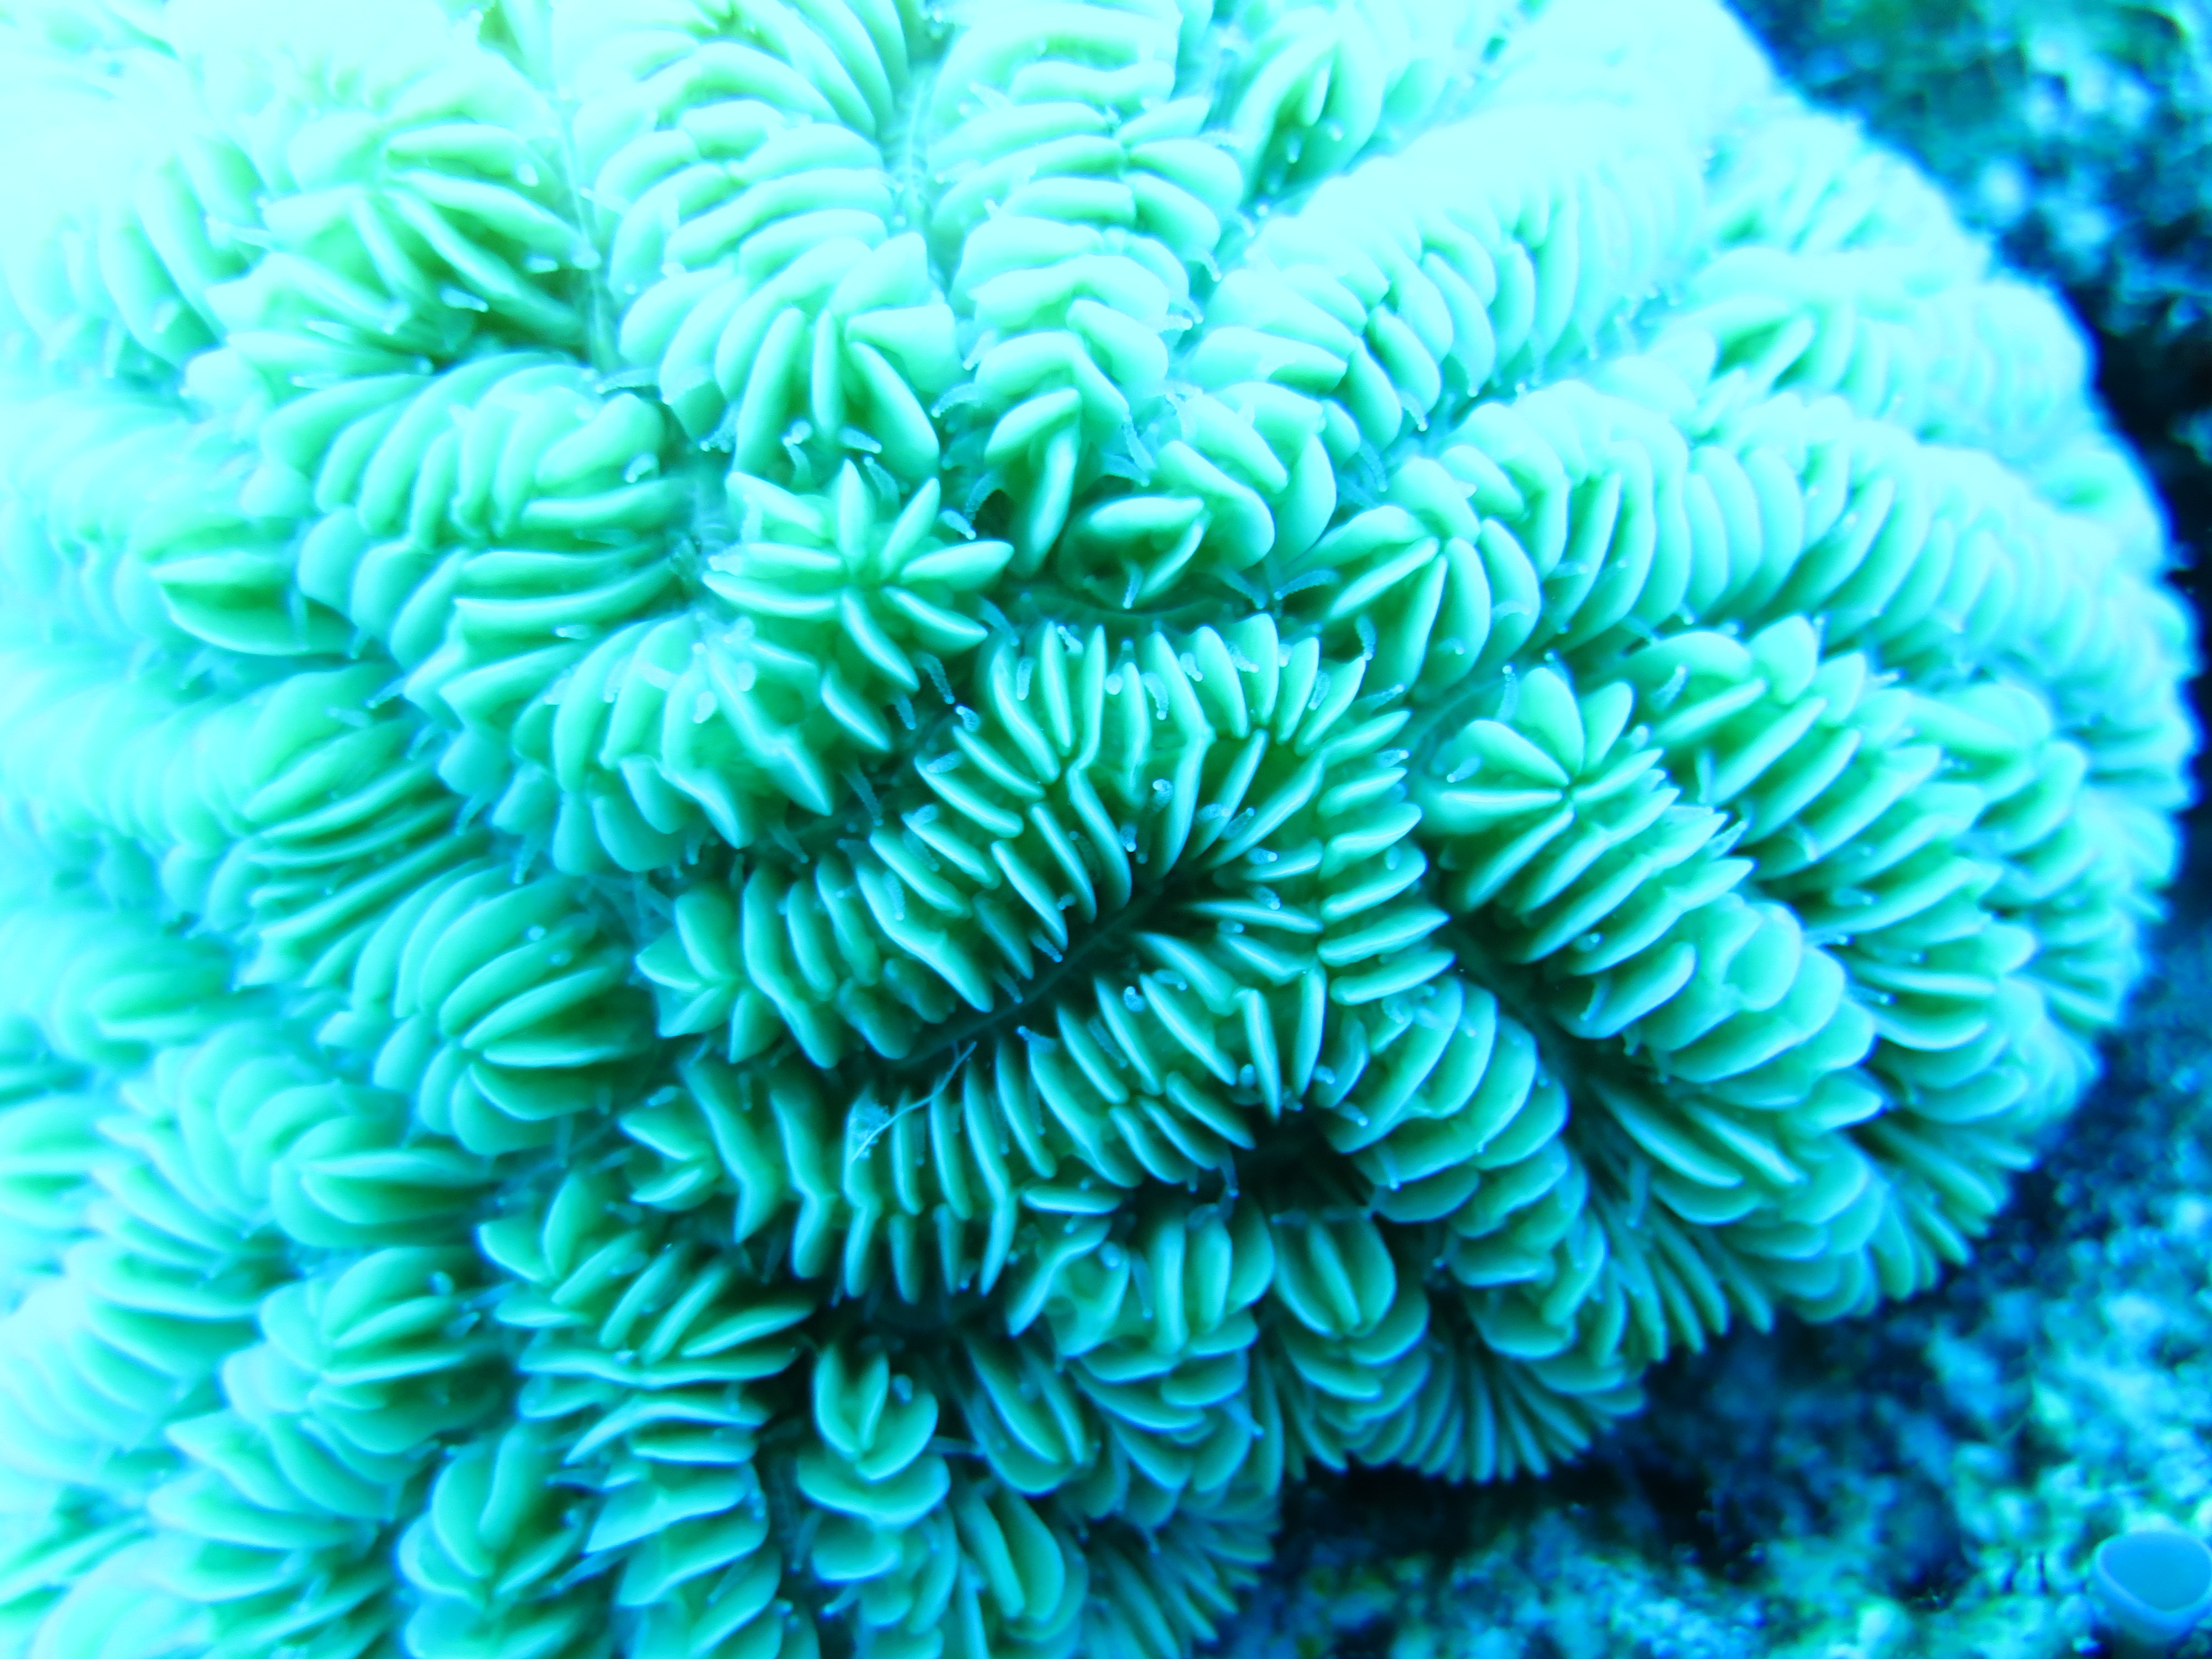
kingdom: Animalia
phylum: Cnidaria
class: Anthozoa
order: Scleractinia
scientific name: Scleractinia
